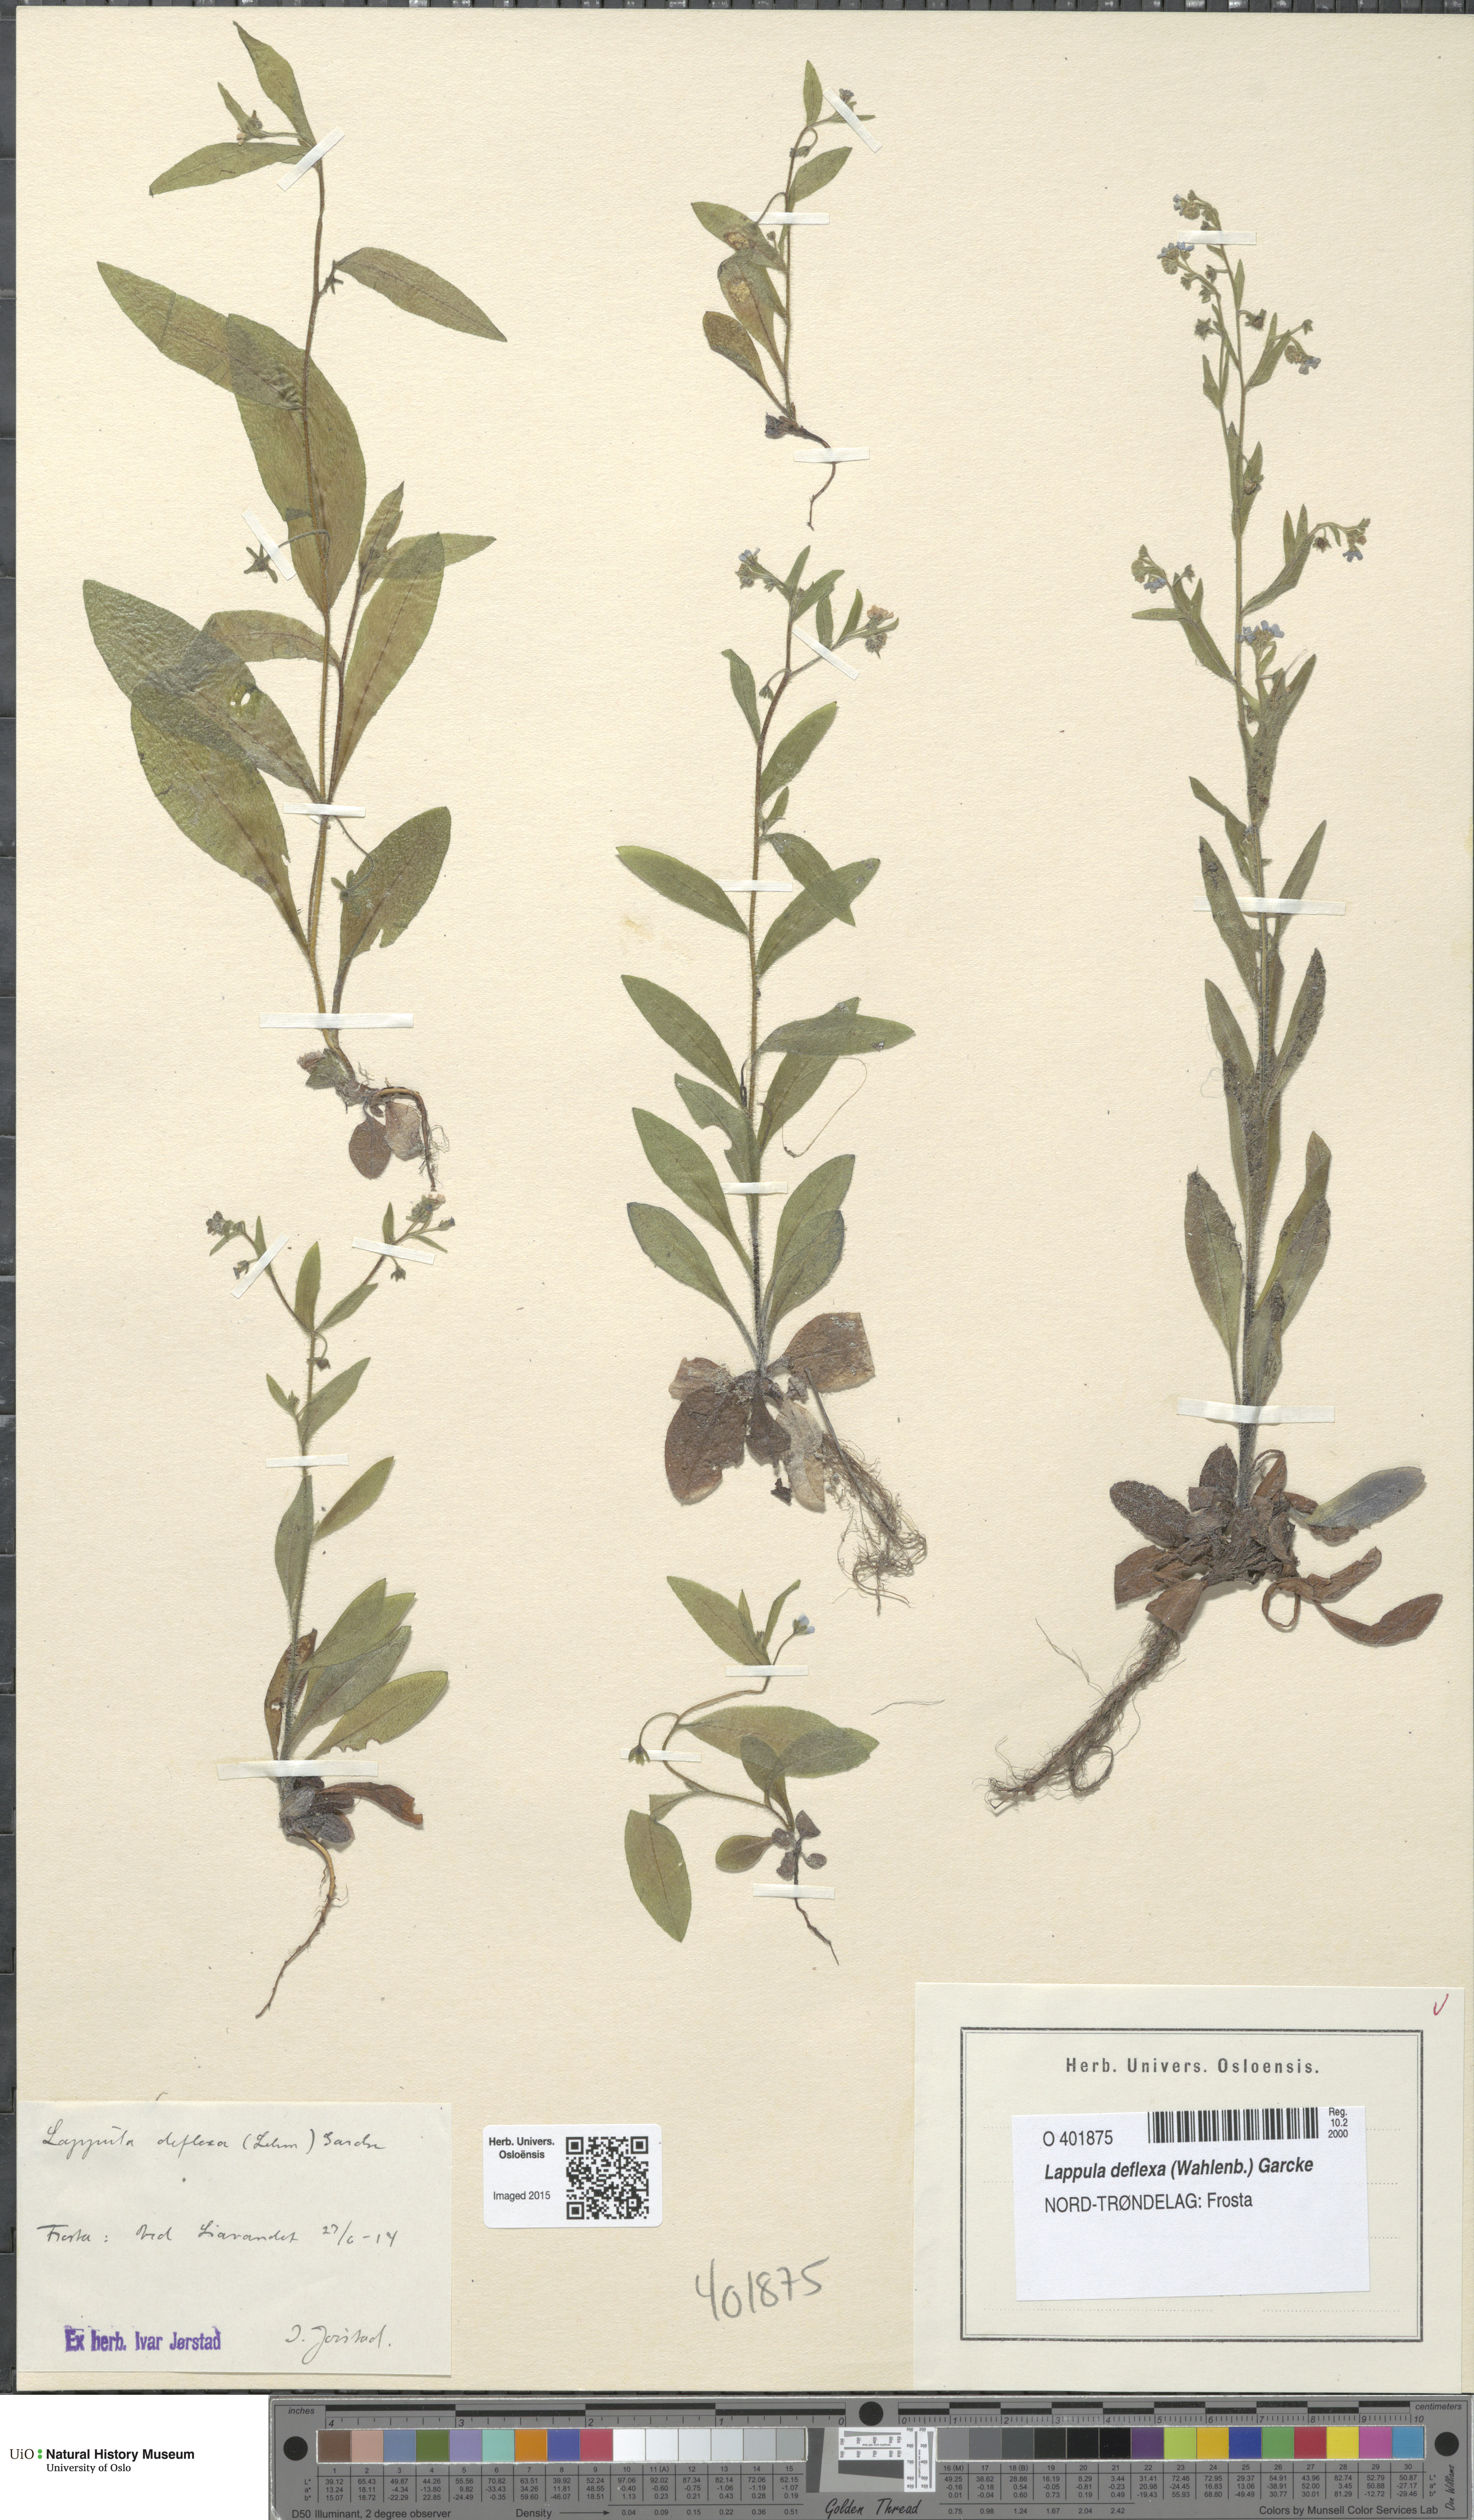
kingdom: Plantae
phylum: Tracheophyta
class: Magnoliopsida
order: Boraginales
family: Boraginaceae
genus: Hackelia
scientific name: Hackelia deflexa
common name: Nodding stickseed
